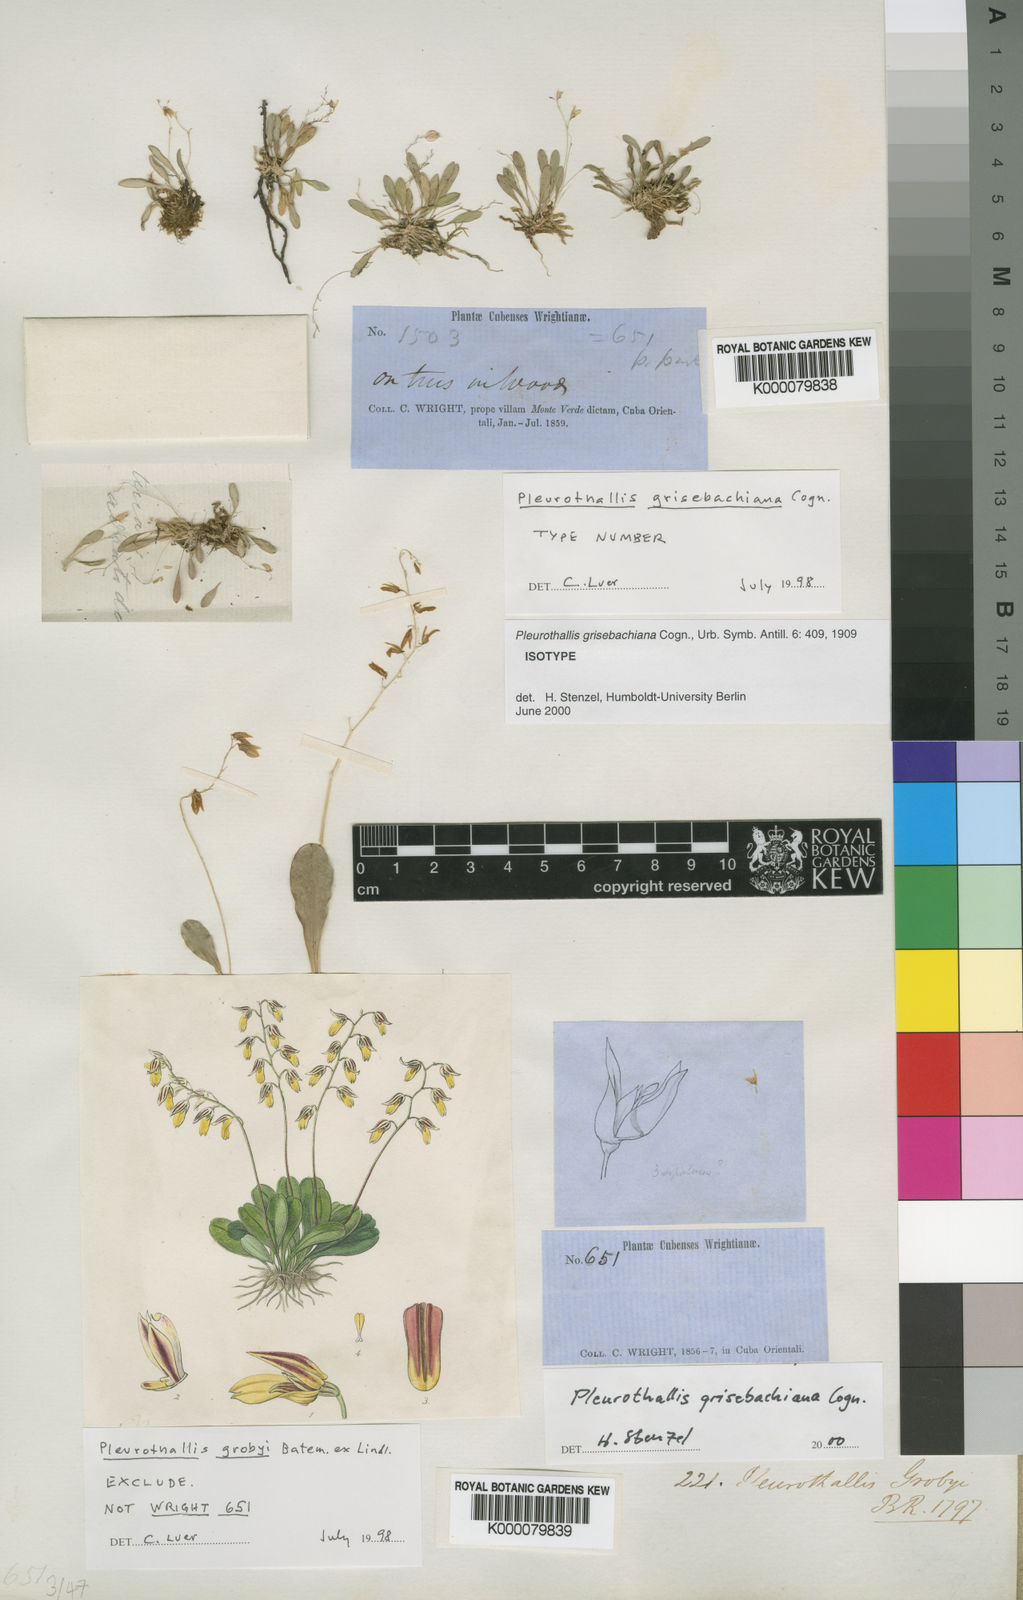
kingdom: Plantae
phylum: Tracheophyta
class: Liliopsida
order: Asparagales
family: Orchidaceae
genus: Specklinia
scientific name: Specklinia grisebachiana
